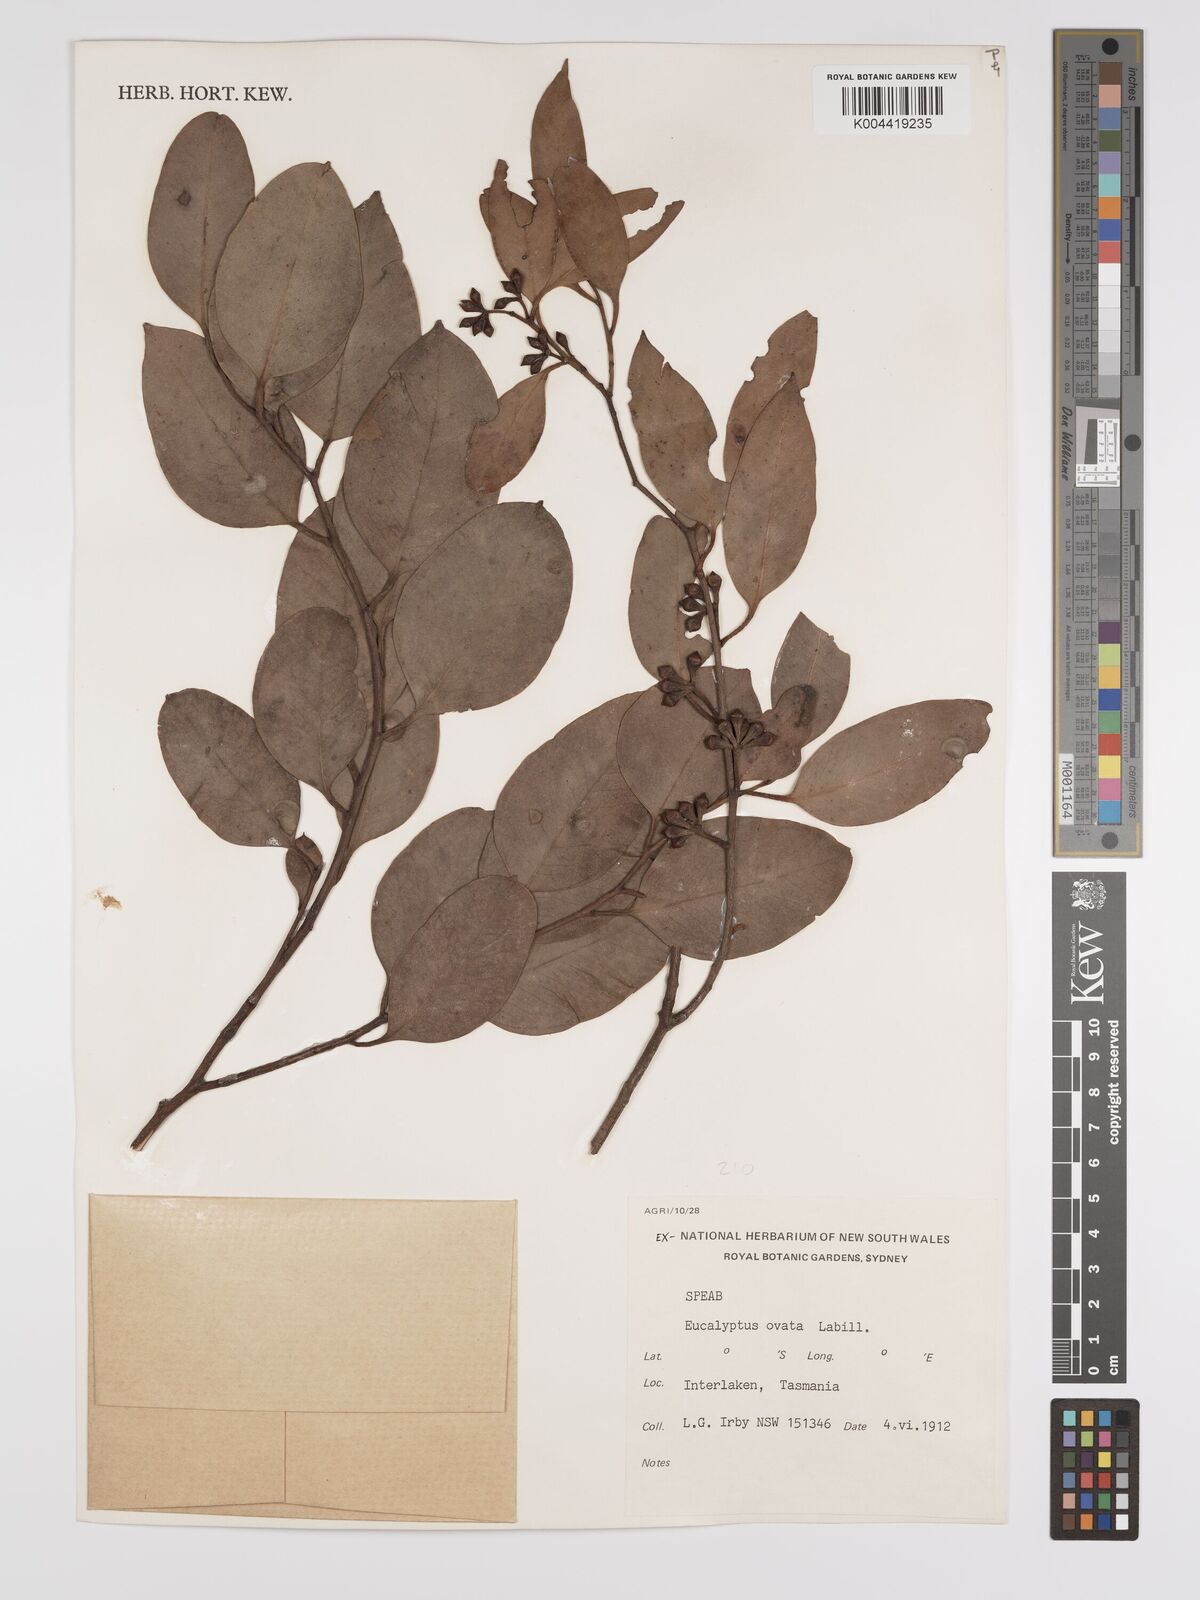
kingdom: Plantae
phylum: Tracheophyta
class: Magnoliopsida
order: Myrtales
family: Myrtaceae
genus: Eucalyptus
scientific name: Eucalyptus
